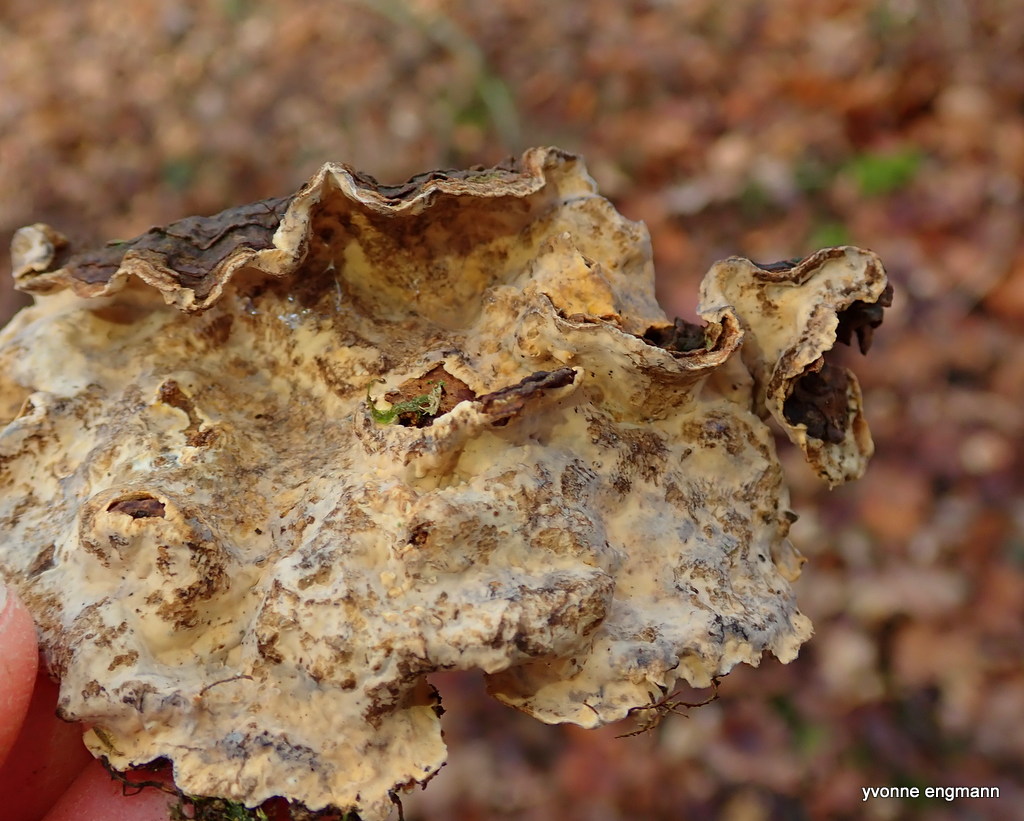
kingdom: Fungi
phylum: Basidiomycota
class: Agaricomycetes
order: Hymenochaetales
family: Hymenochaetaceae
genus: Hymenochaete
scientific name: Hymenochaete rubiginosa
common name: stiv ruslædersvamp
